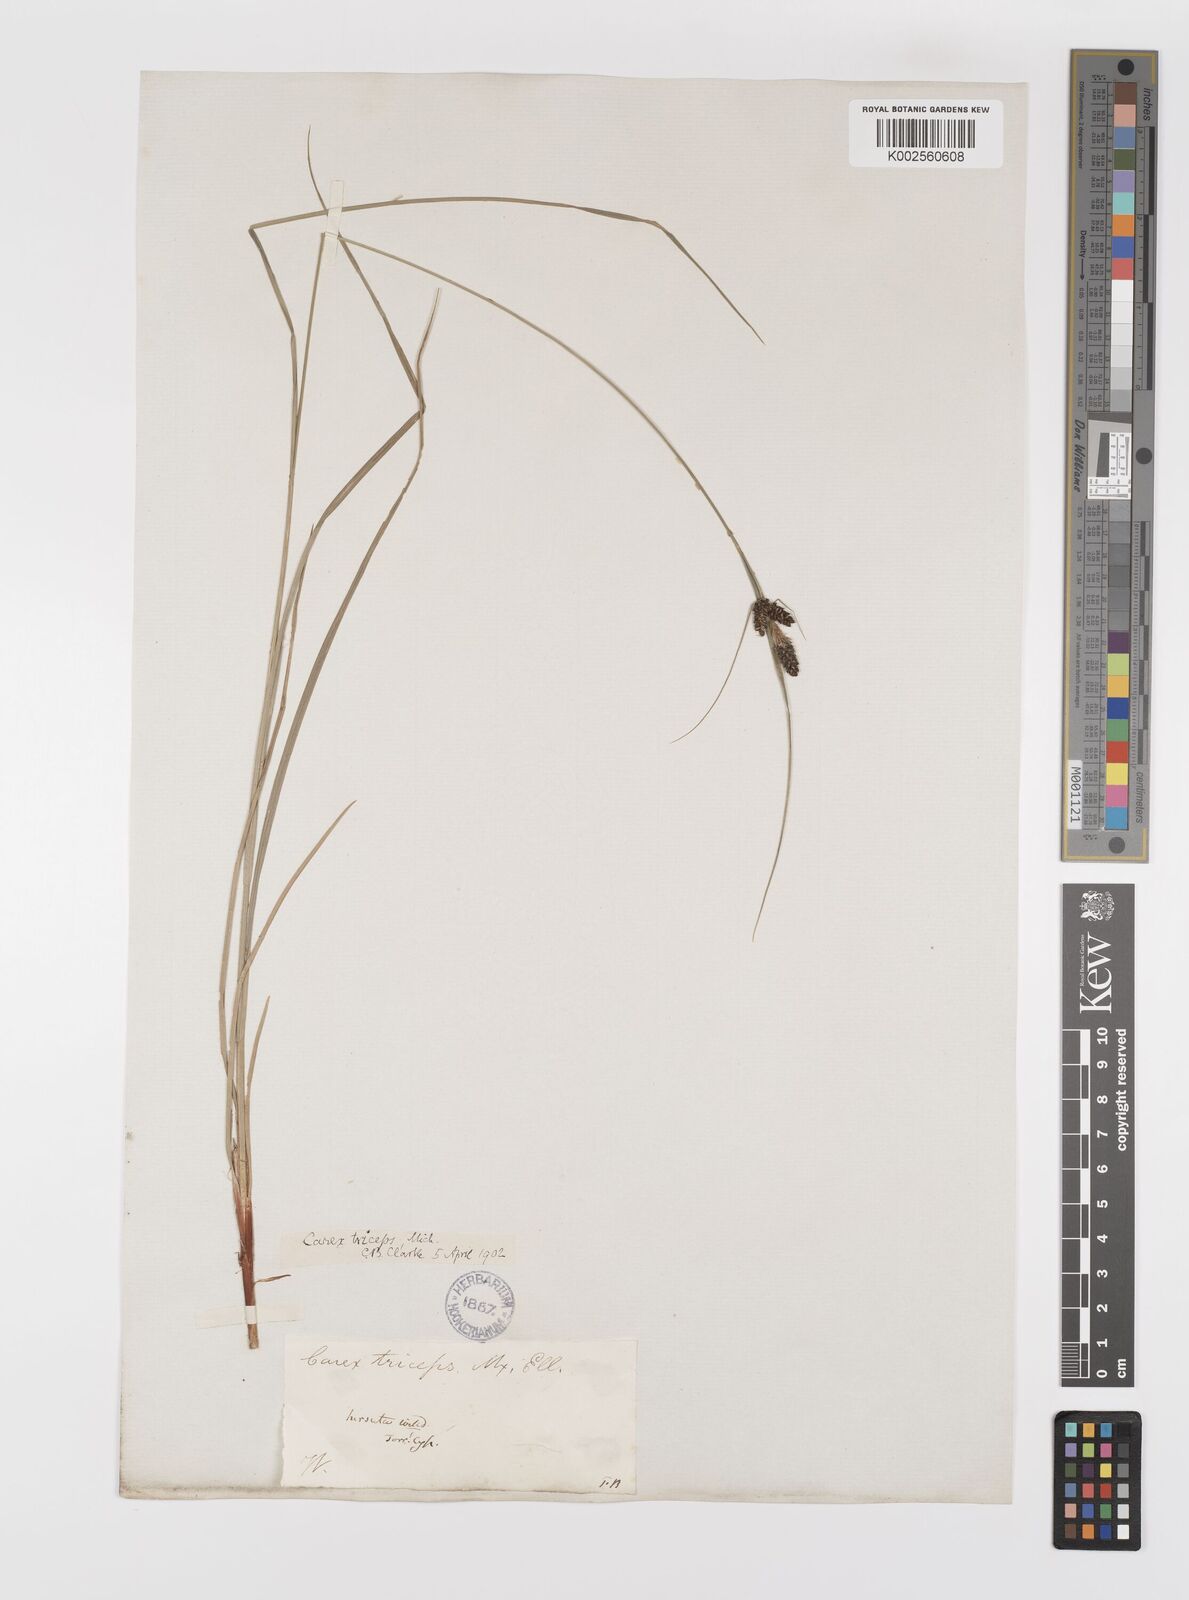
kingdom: Plantae
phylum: Tracheophyta
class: Liliopsida
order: Poales
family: Cyperaceae
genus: Carex
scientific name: Carex complanata
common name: Hirsute sedge
